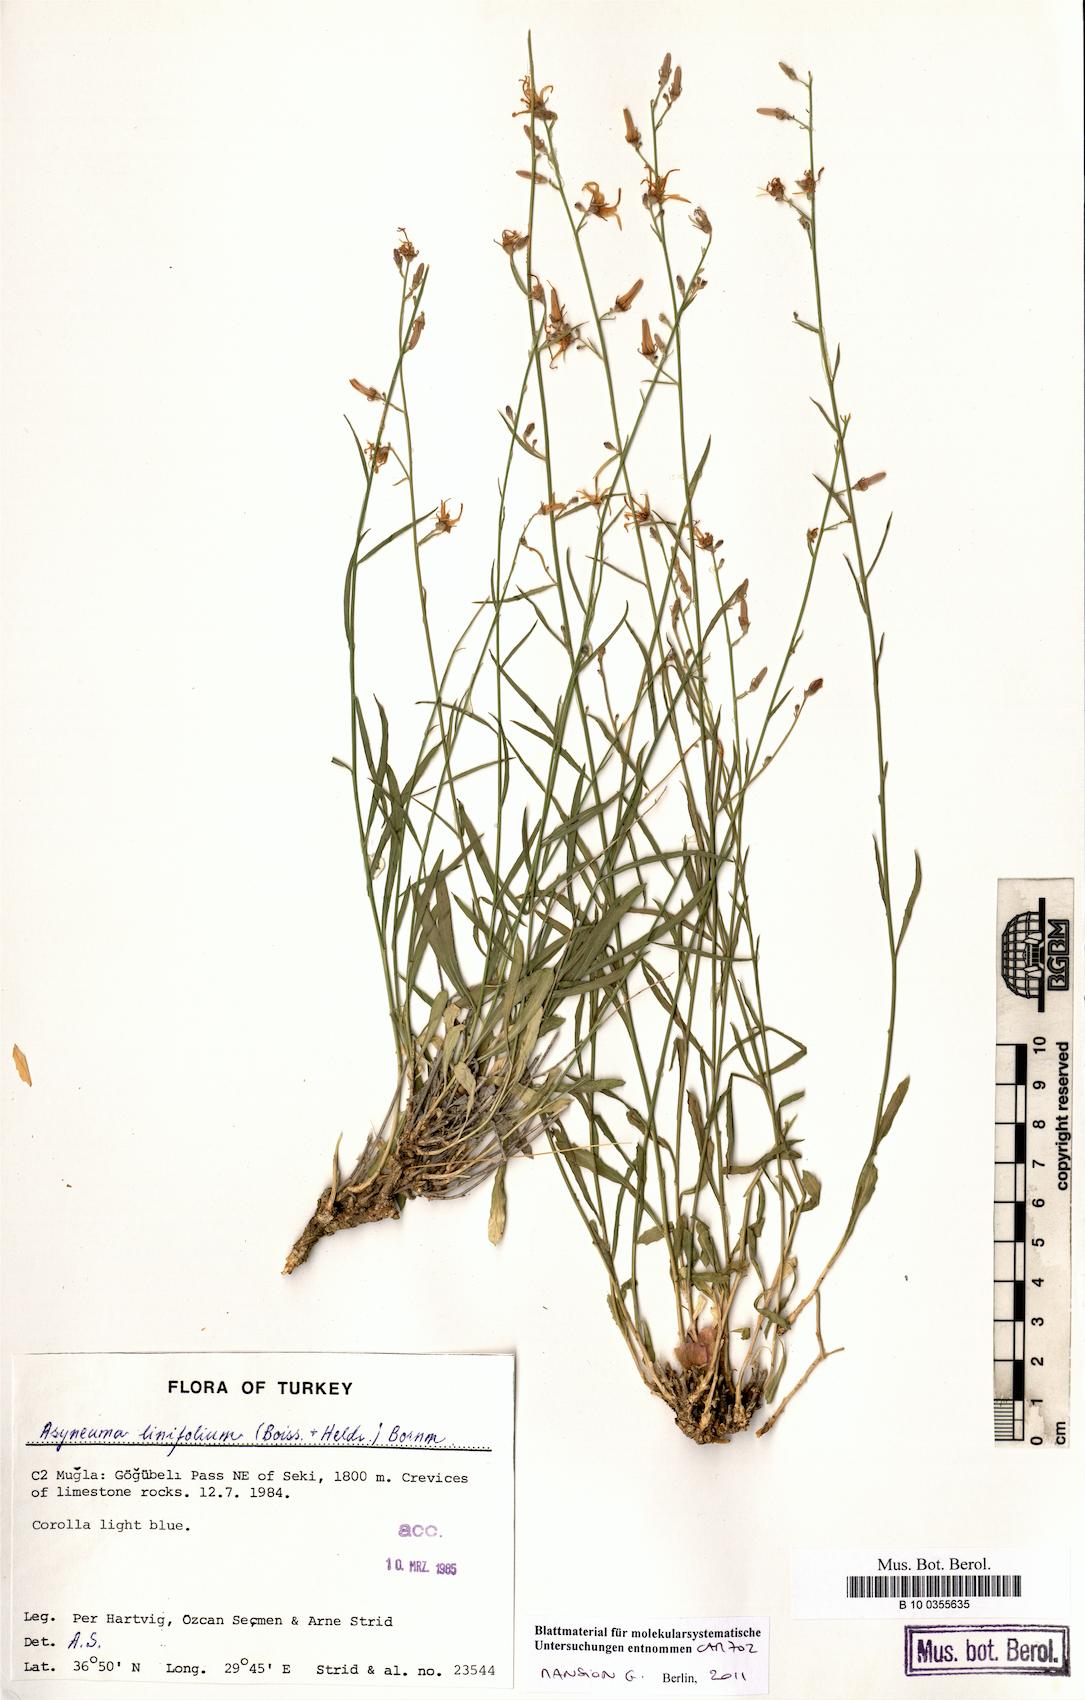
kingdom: Plantae
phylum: Tracheophyta
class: Magnoliopsida
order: Asterales
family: Campanulaceae
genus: Asyneuma
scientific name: Asyneuma linifolium
